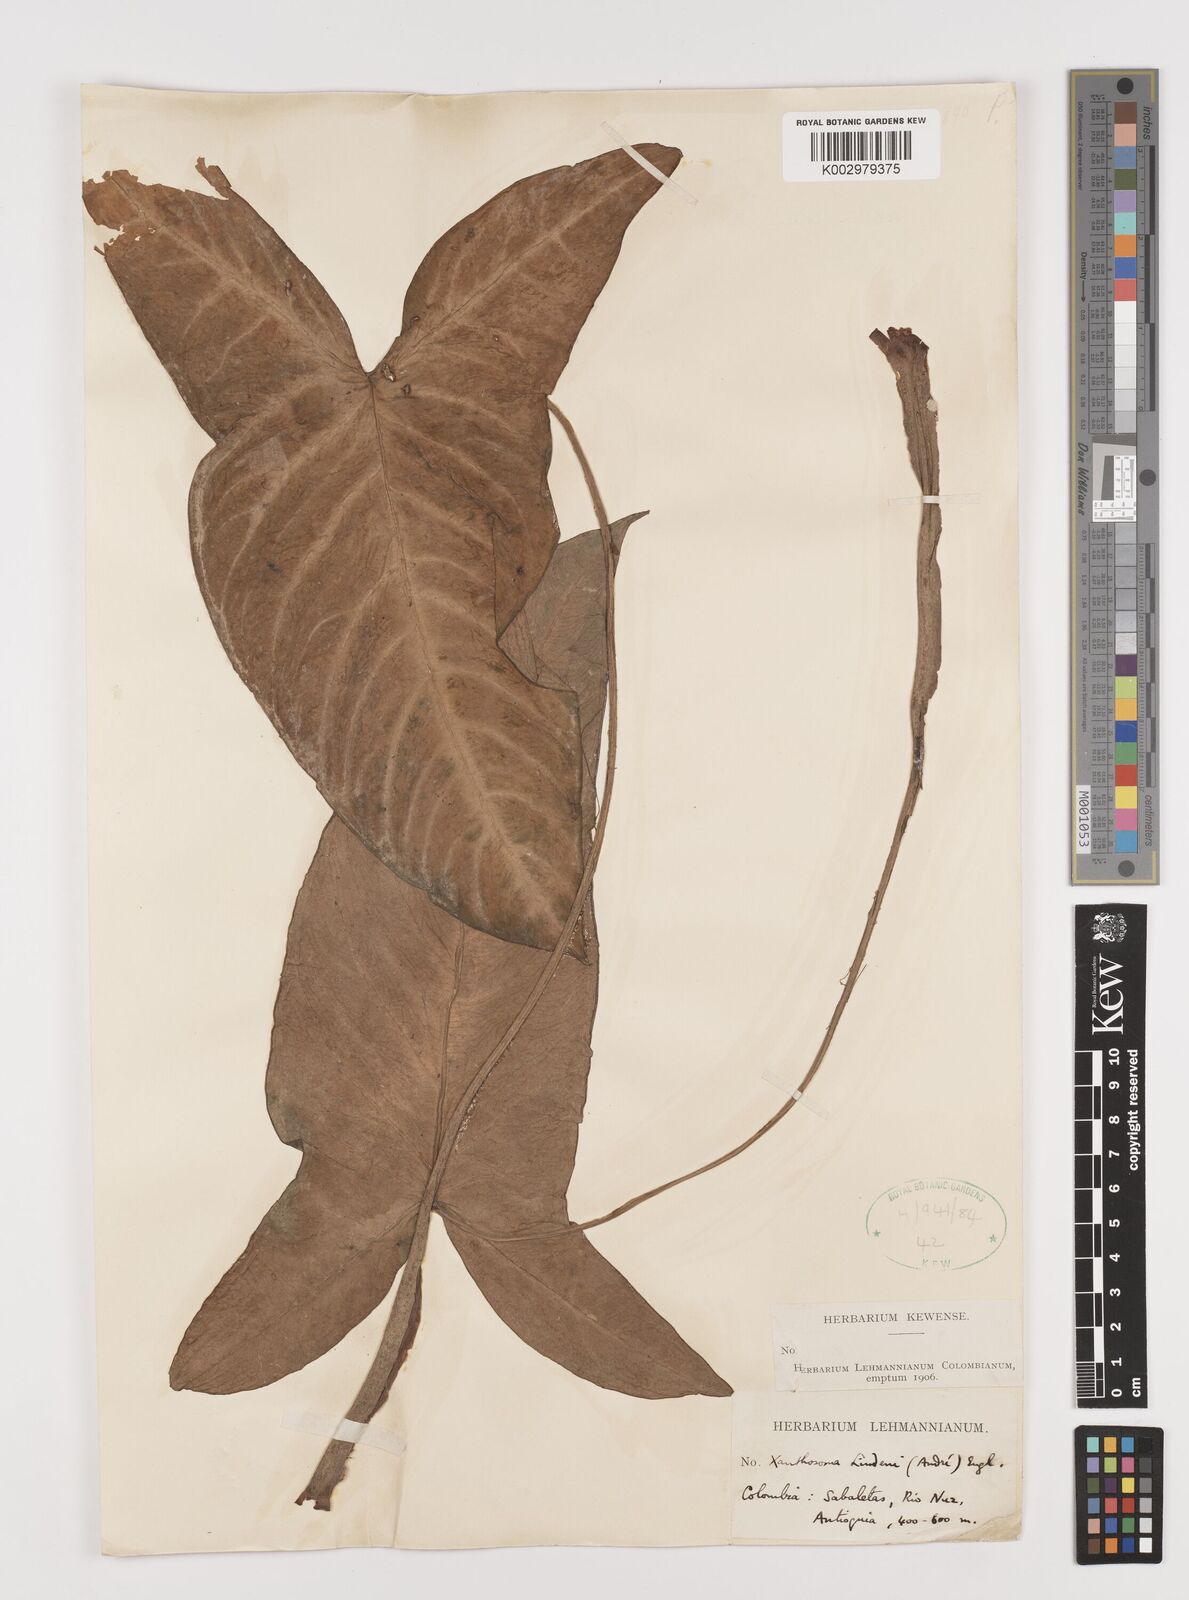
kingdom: Plantae
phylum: Tracheophyta
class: Liliopsida
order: Alismatales
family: Araceae
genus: Caladium
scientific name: Caladium
